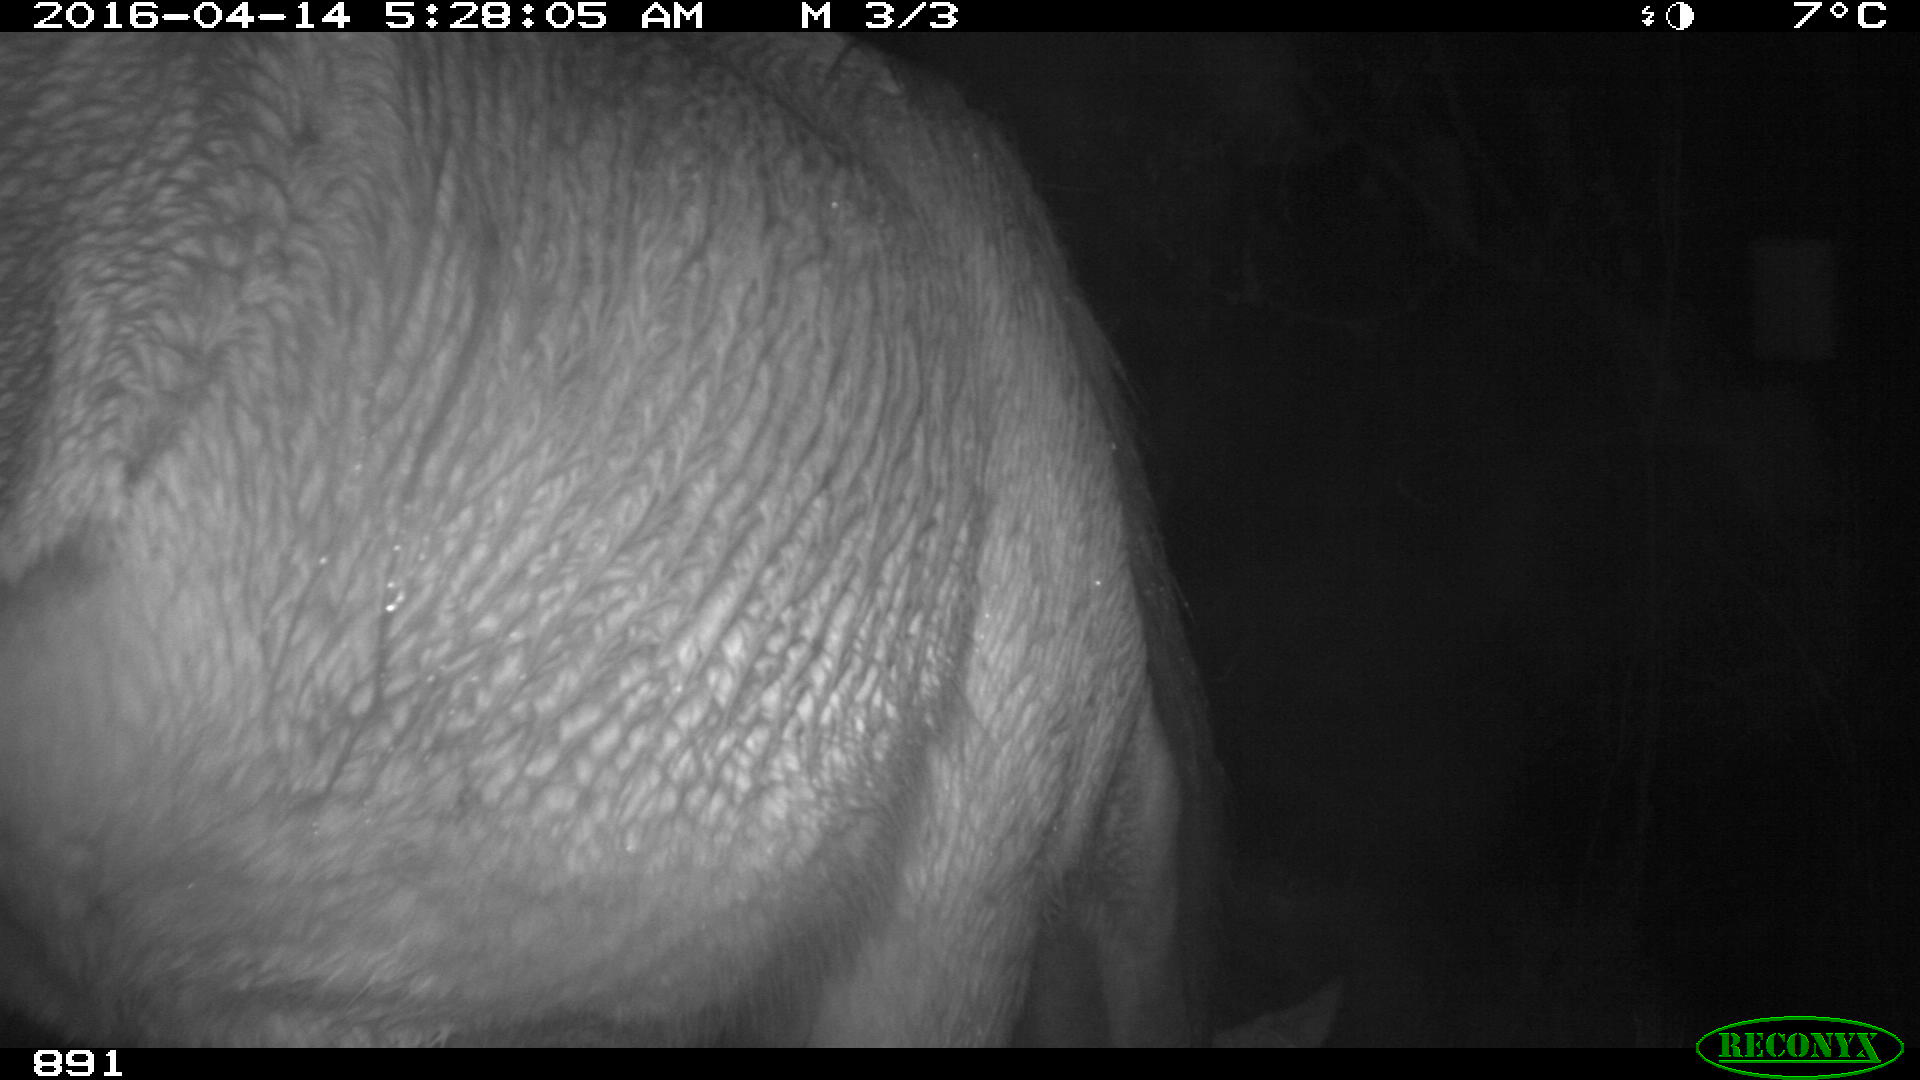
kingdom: Animalia
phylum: Chordata
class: Mammalia
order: Perissodactyla
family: Equidae
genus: Equus
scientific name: Equus caballus
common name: Horse
